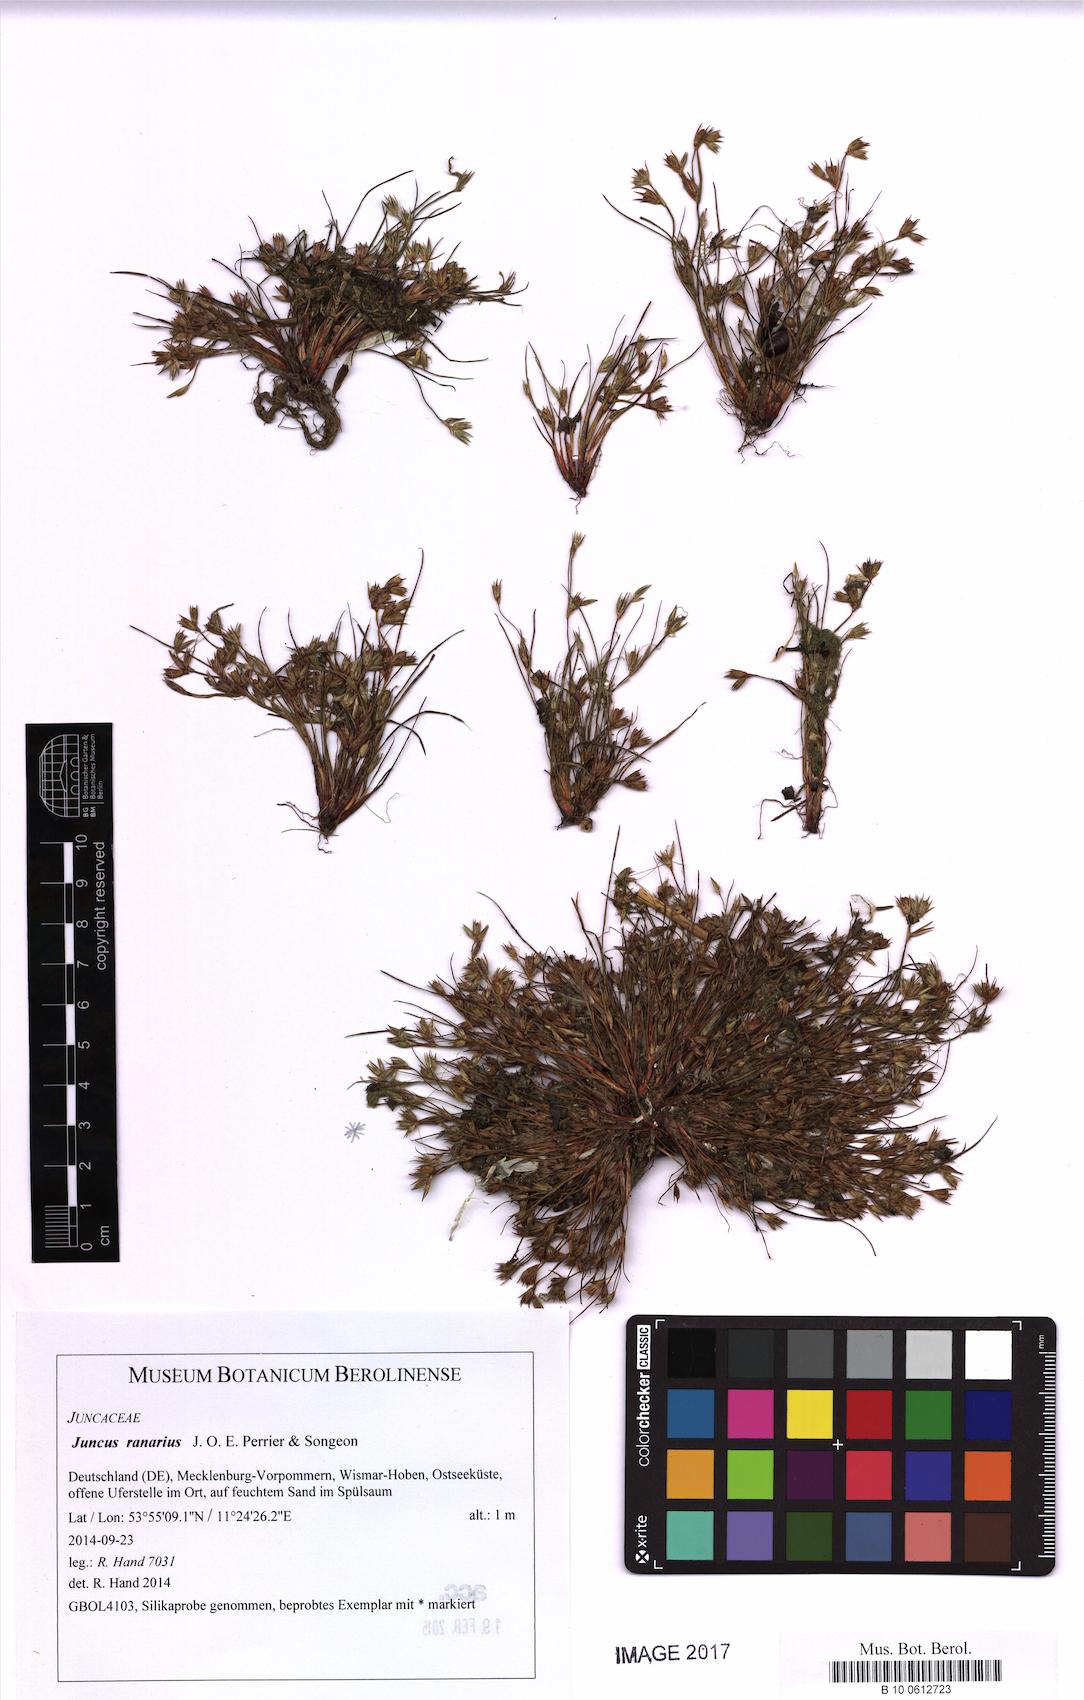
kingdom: Plantae
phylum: Tracheophyta
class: Liliopsida
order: Poales
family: Juncaceae
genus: Juncus
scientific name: Juncus ranarius
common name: Frog rush
